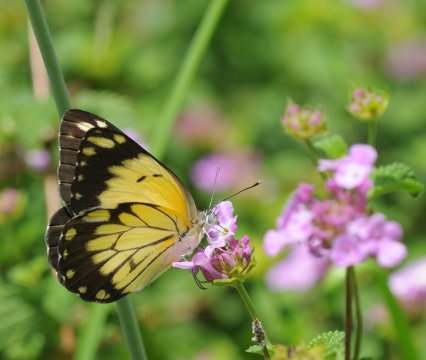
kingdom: Animalia
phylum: Arthropoda
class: Insecta
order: Lepidoptera
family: Pieridae
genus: Belenois
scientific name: Belenois creona
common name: African Caper
